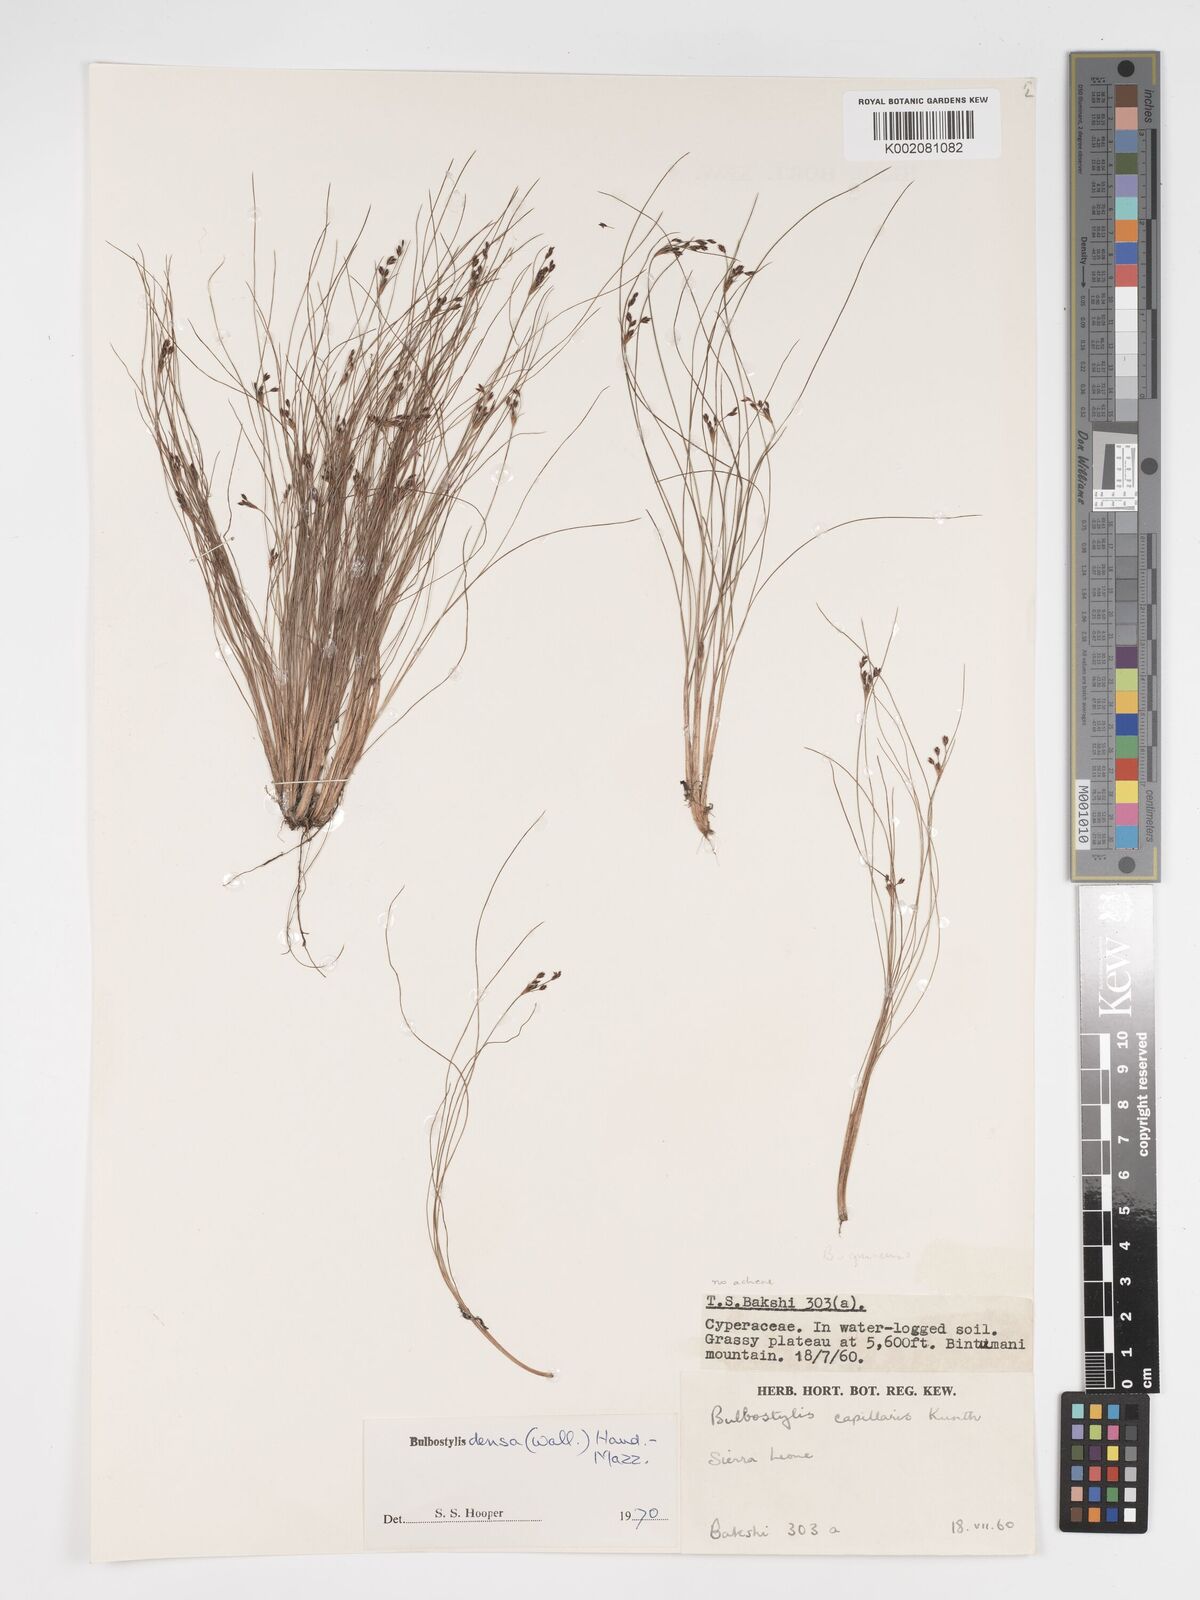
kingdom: Plantae
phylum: Tracheophyta
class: Liliopsida
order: Poales
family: Cyperaceae
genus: Bulbostylis
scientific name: Bulbostylis
